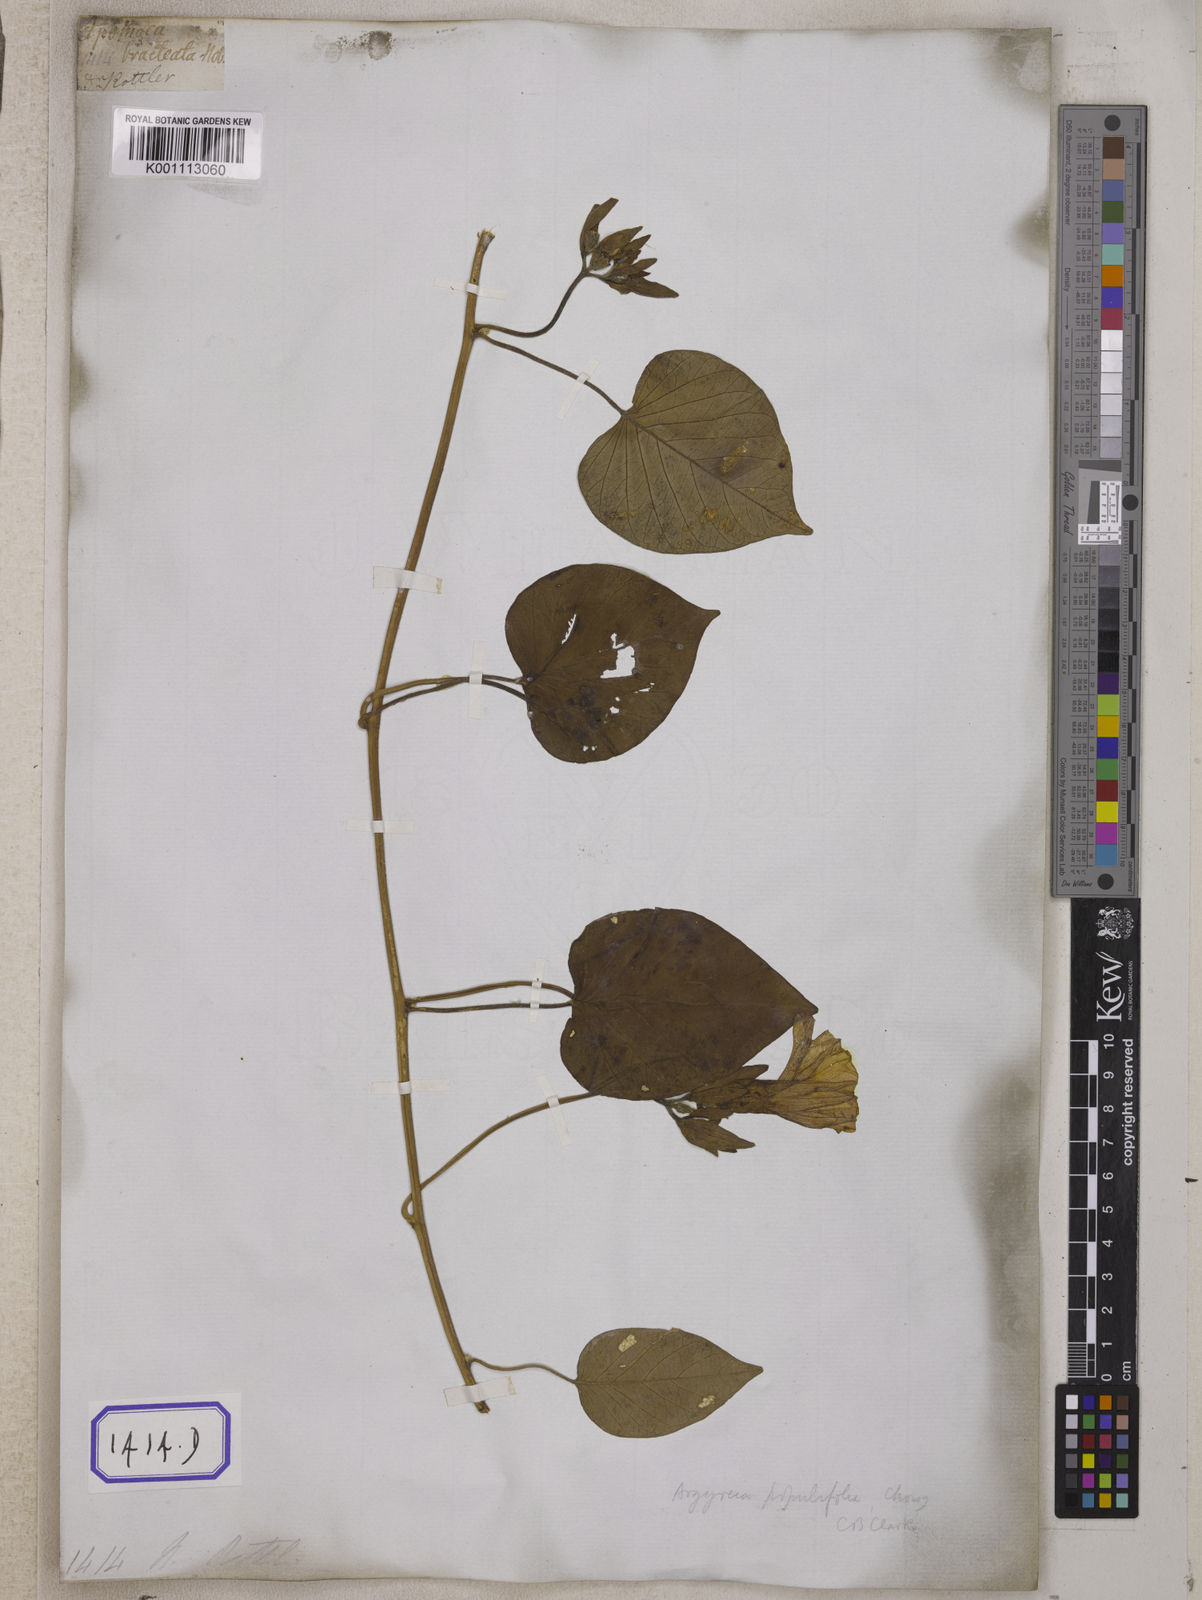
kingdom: Plantae
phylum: Tracheophyta
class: Magnoliopsida
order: Solanales
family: Convolvulaceae
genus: Argyreia
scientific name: Argyreia argentea
